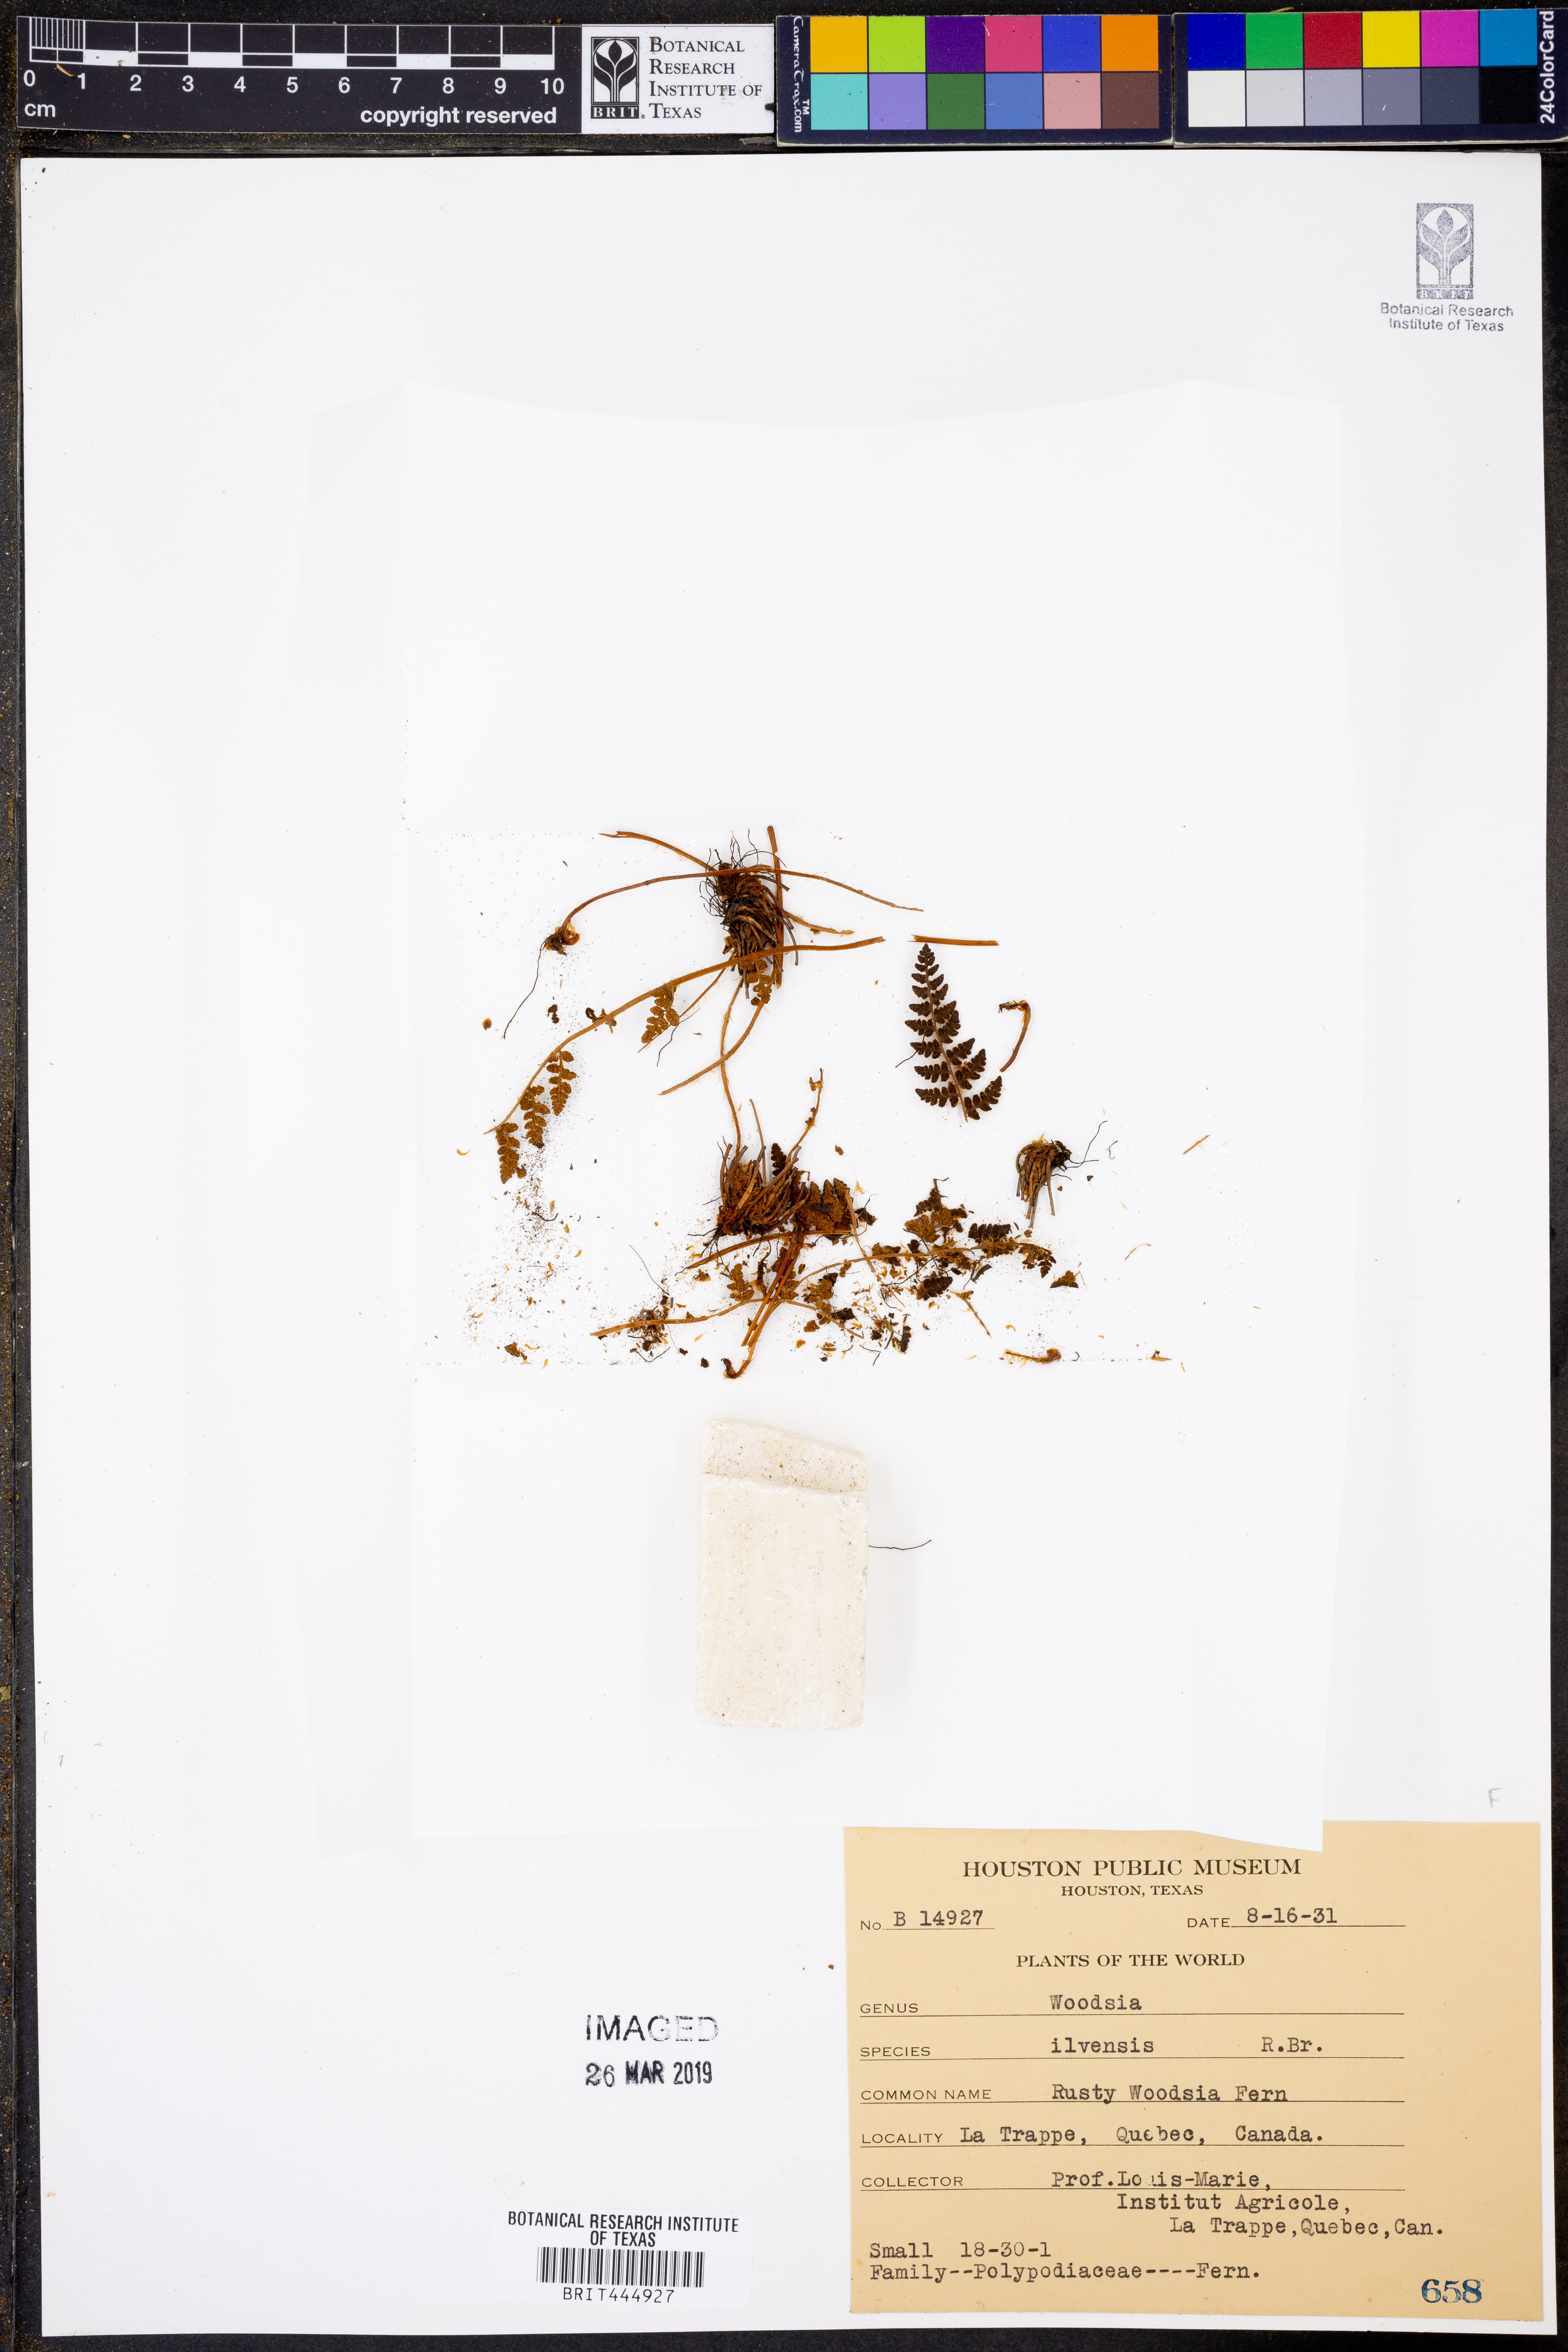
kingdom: Plantae
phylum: Tracheophyta
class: Polypodiopsida
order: Polypodiales
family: Woodsiaceae
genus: Woodsia
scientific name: Woodsia ilvensis
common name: Fragrant woodsia
